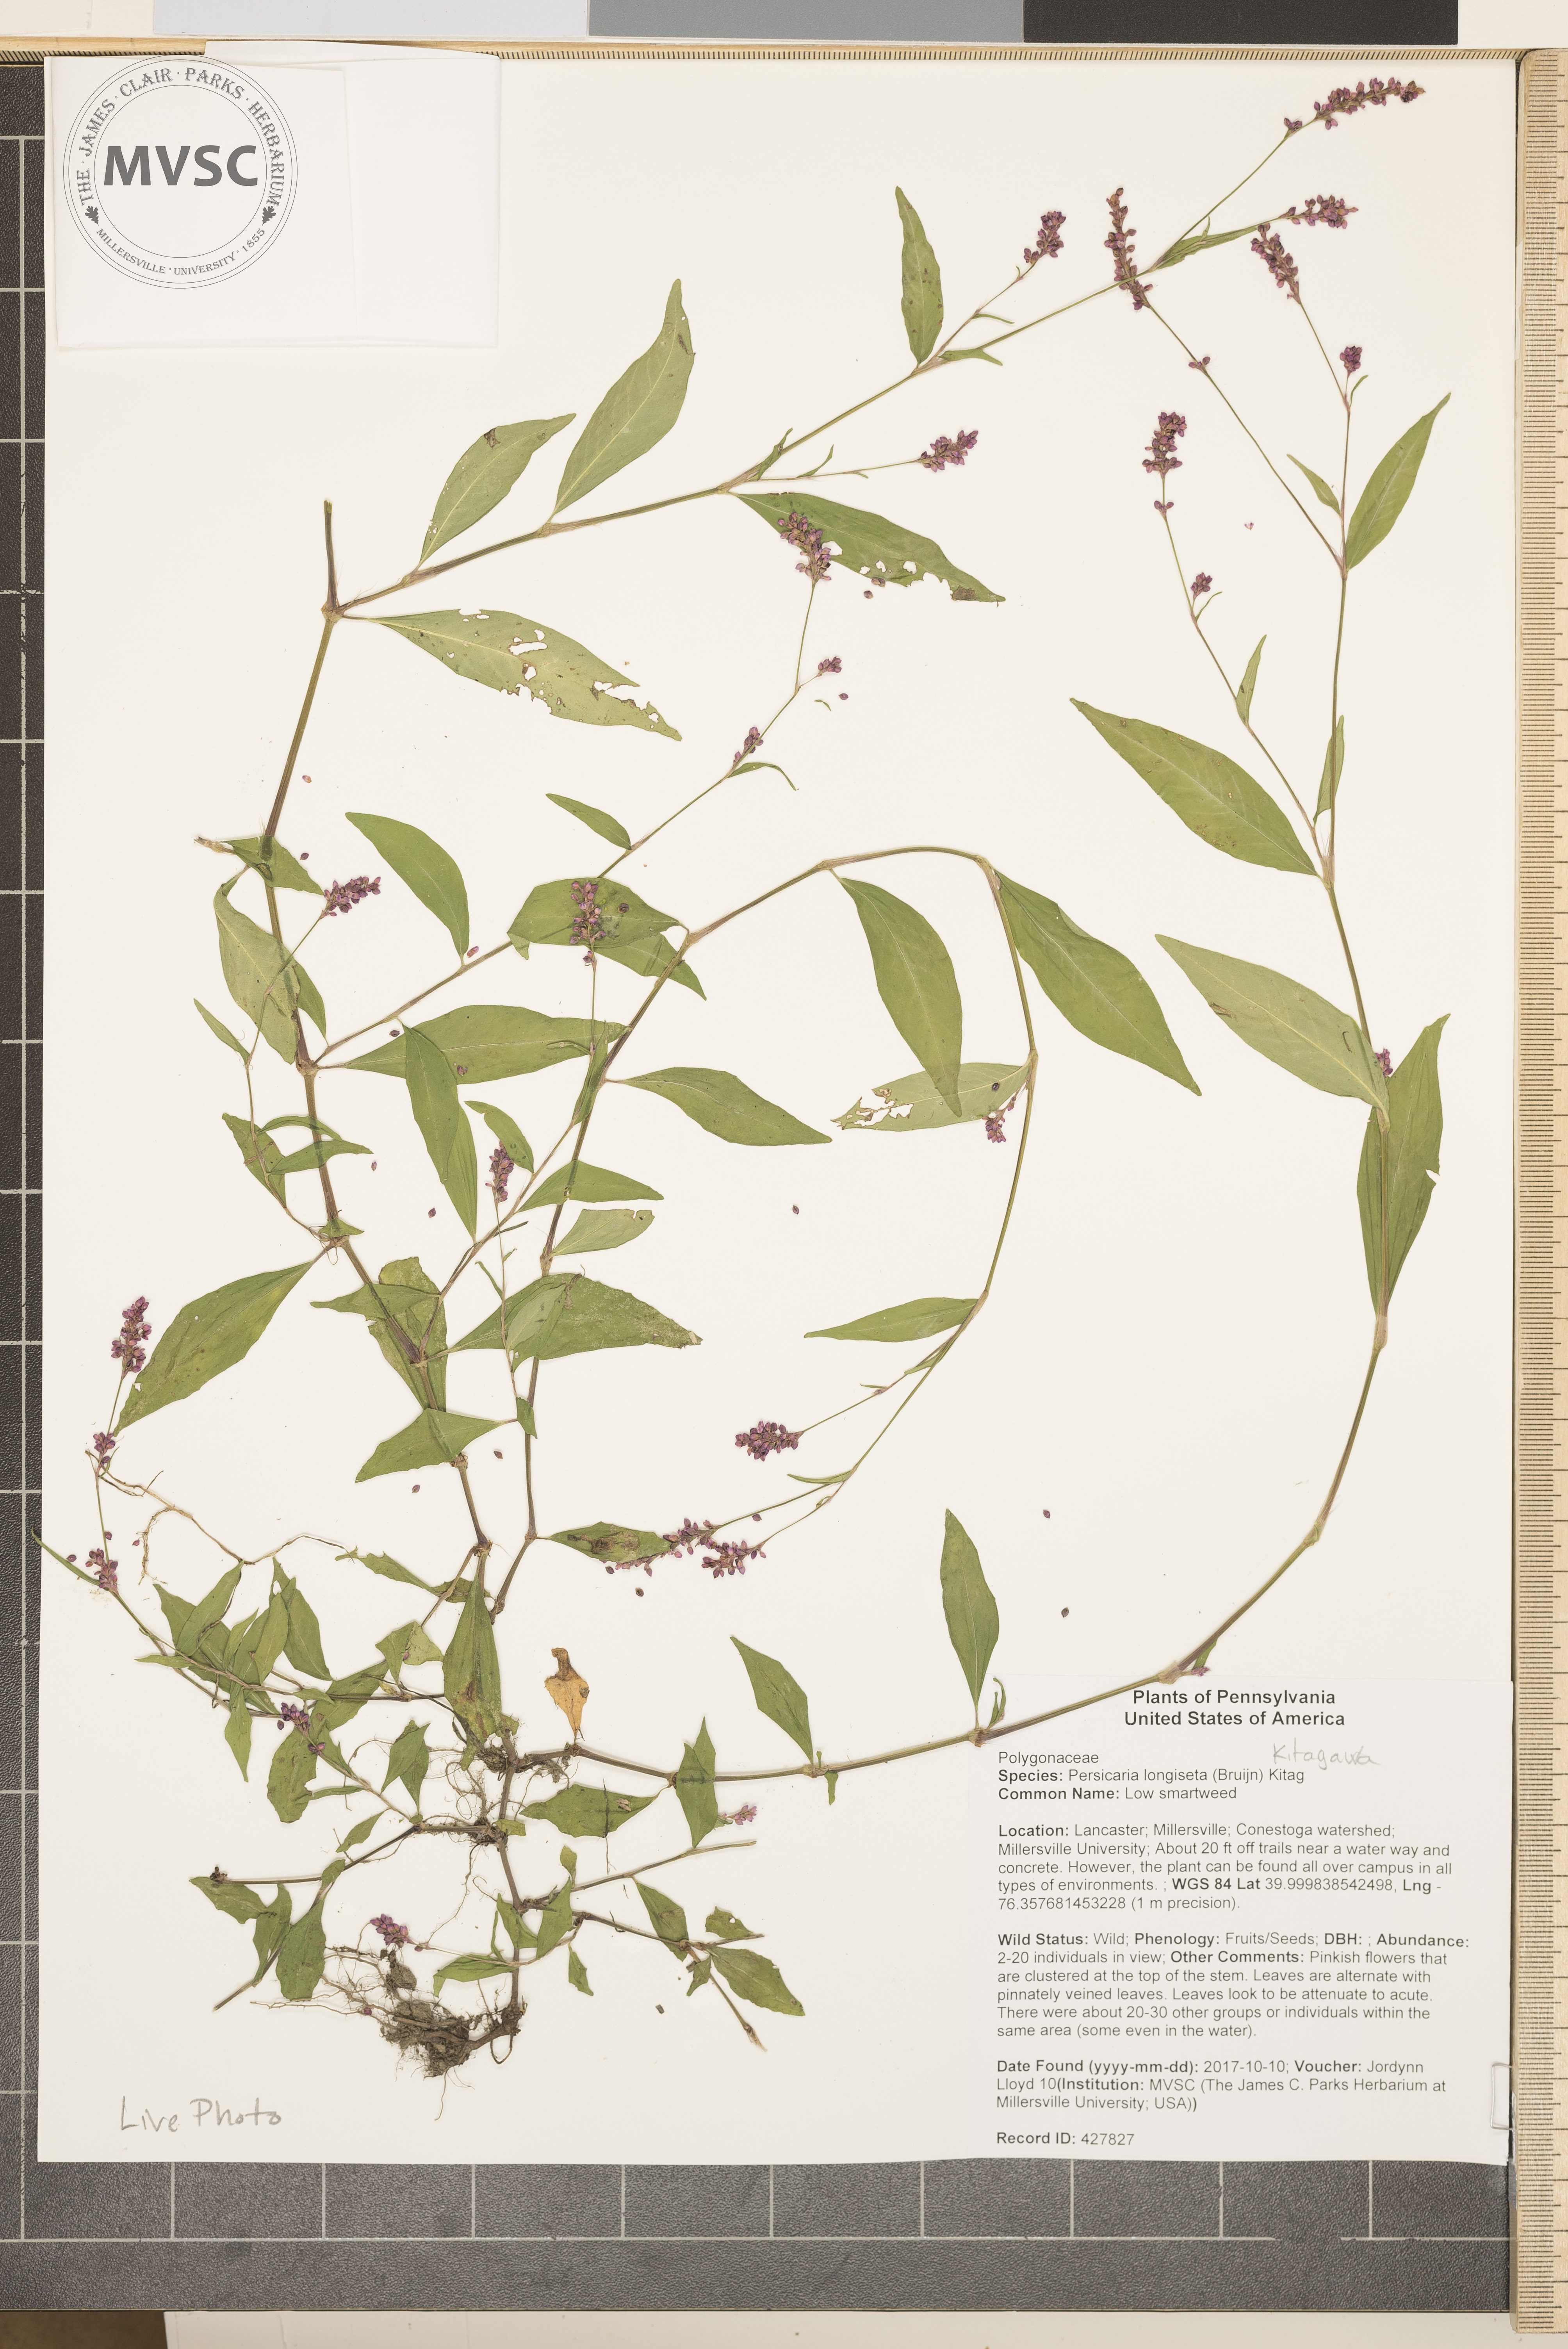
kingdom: Plantae
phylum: Tracheophyta
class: Magnoliopsida
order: Caryophyllales
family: Polygonaceae
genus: Persicaria
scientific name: Persicaria longiseta
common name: Low smartweed
